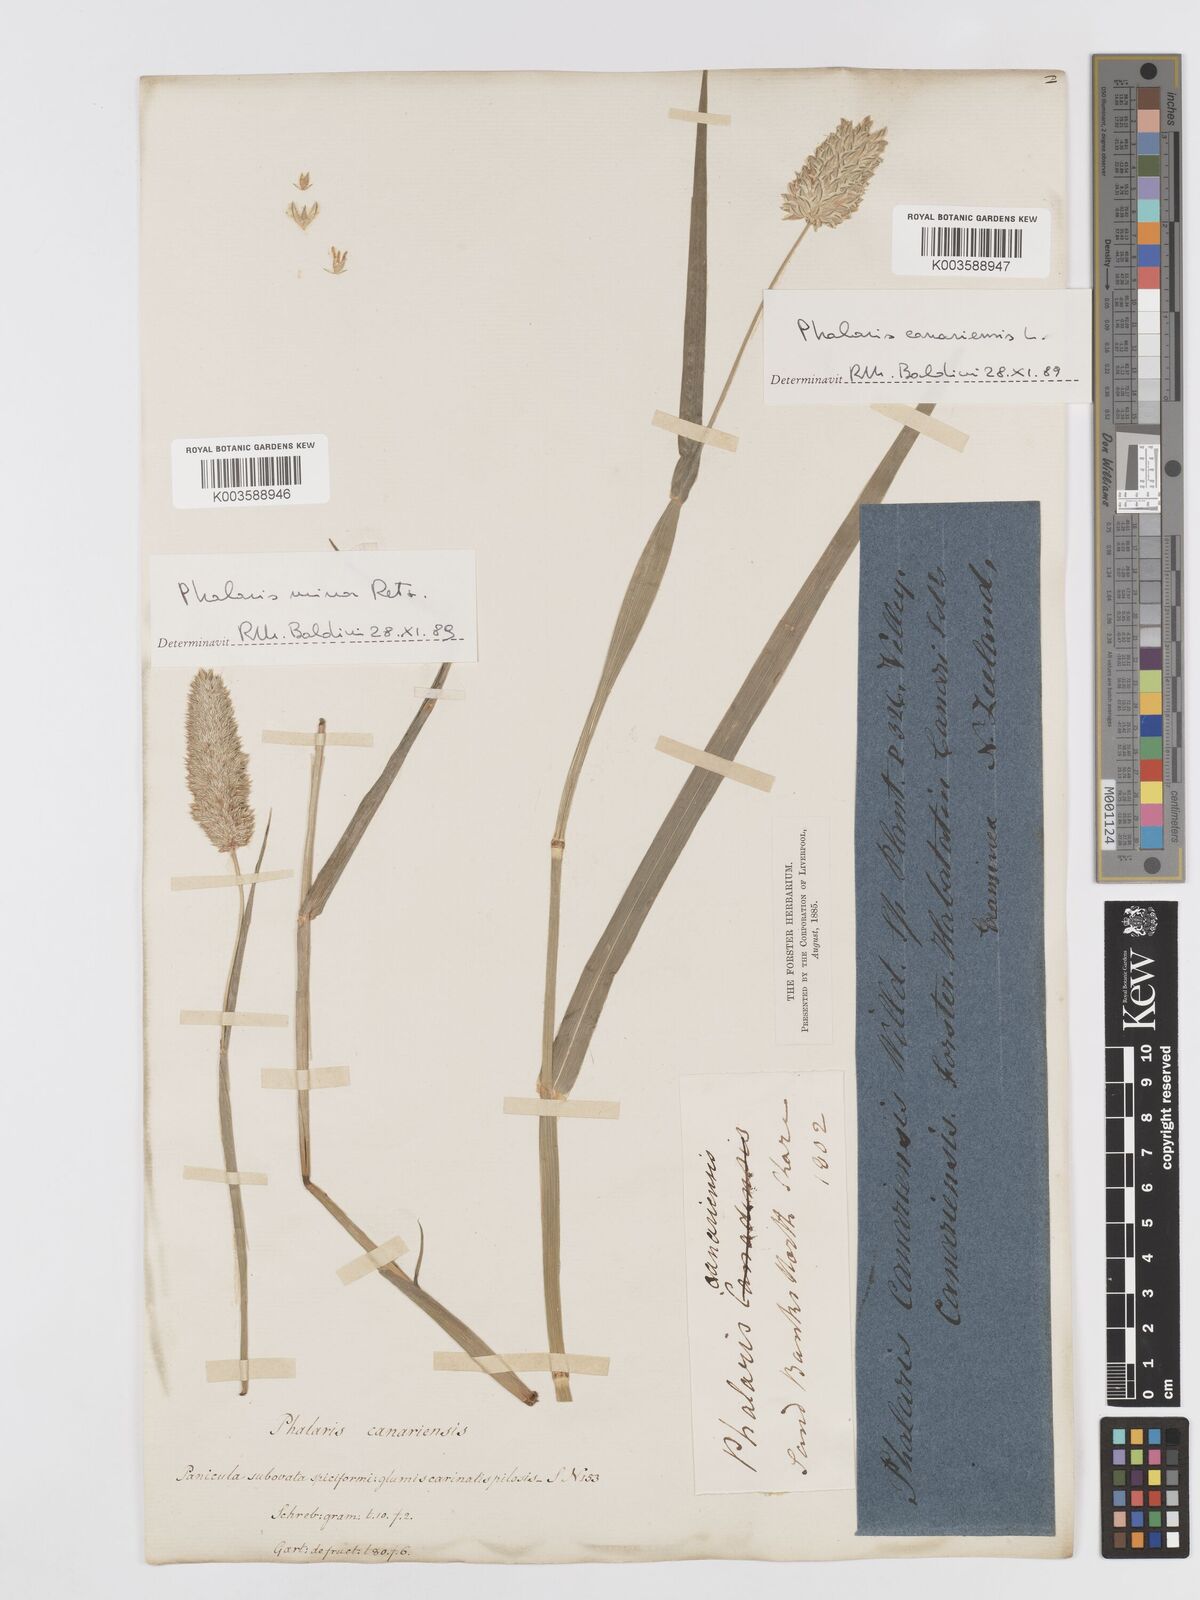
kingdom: Plantae
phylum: Tracheophyta
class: Liliopsida
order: Poales
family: Poaceae
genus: Phalaris
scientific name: Phalaris minor
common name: Littleseed canarygrass
